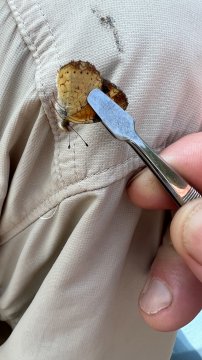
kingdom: Animalia
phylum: Arthropoda
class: Insecta
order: Lepidoptera
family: Nymphalidae
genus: Phyciodes
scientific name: Phyciodes tharos
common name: Pearl Crescent
